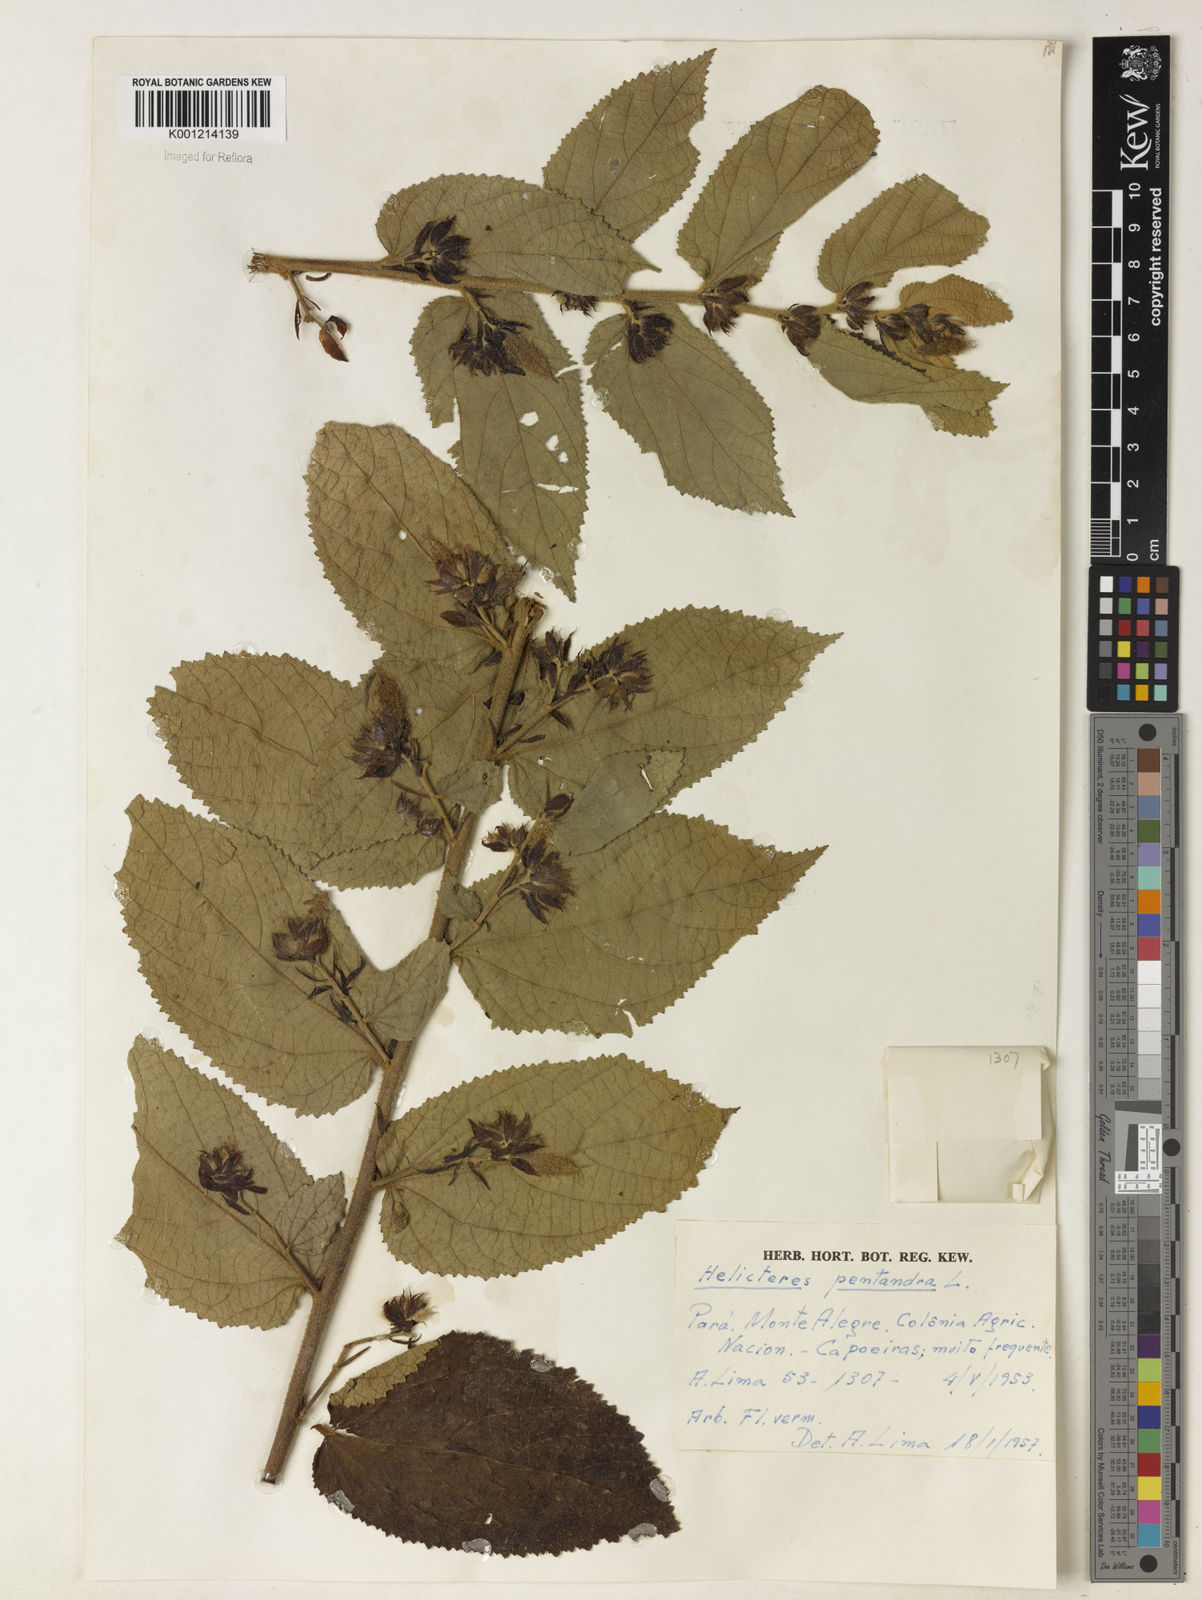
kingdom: Plantae
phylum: Tracheophyta
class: Magnoliopsida
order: Malvales
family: Malvaceae
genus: Helicteres
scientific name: Helicteres pentandra
